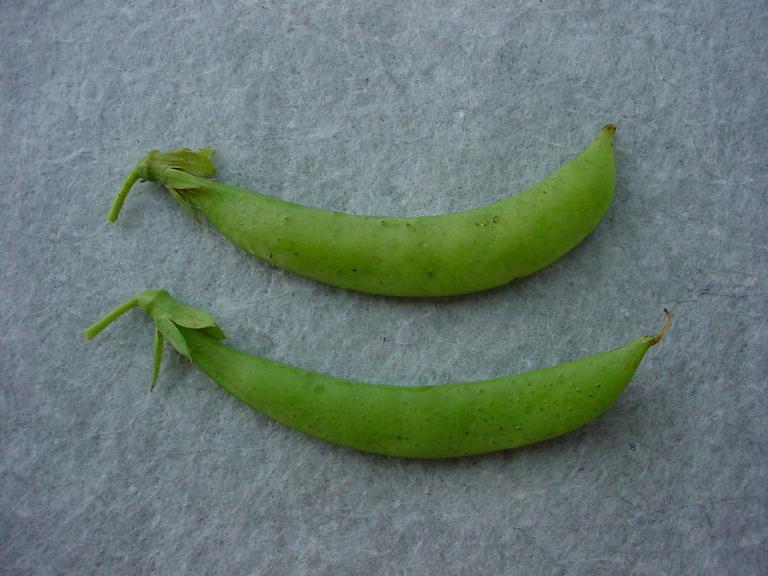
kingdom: Plantae
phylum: Tracheophyta
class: Magnoliopsida
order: Fabales
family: Fabaceae
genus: Lathyrus
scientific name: Lathyrus oleraceus
